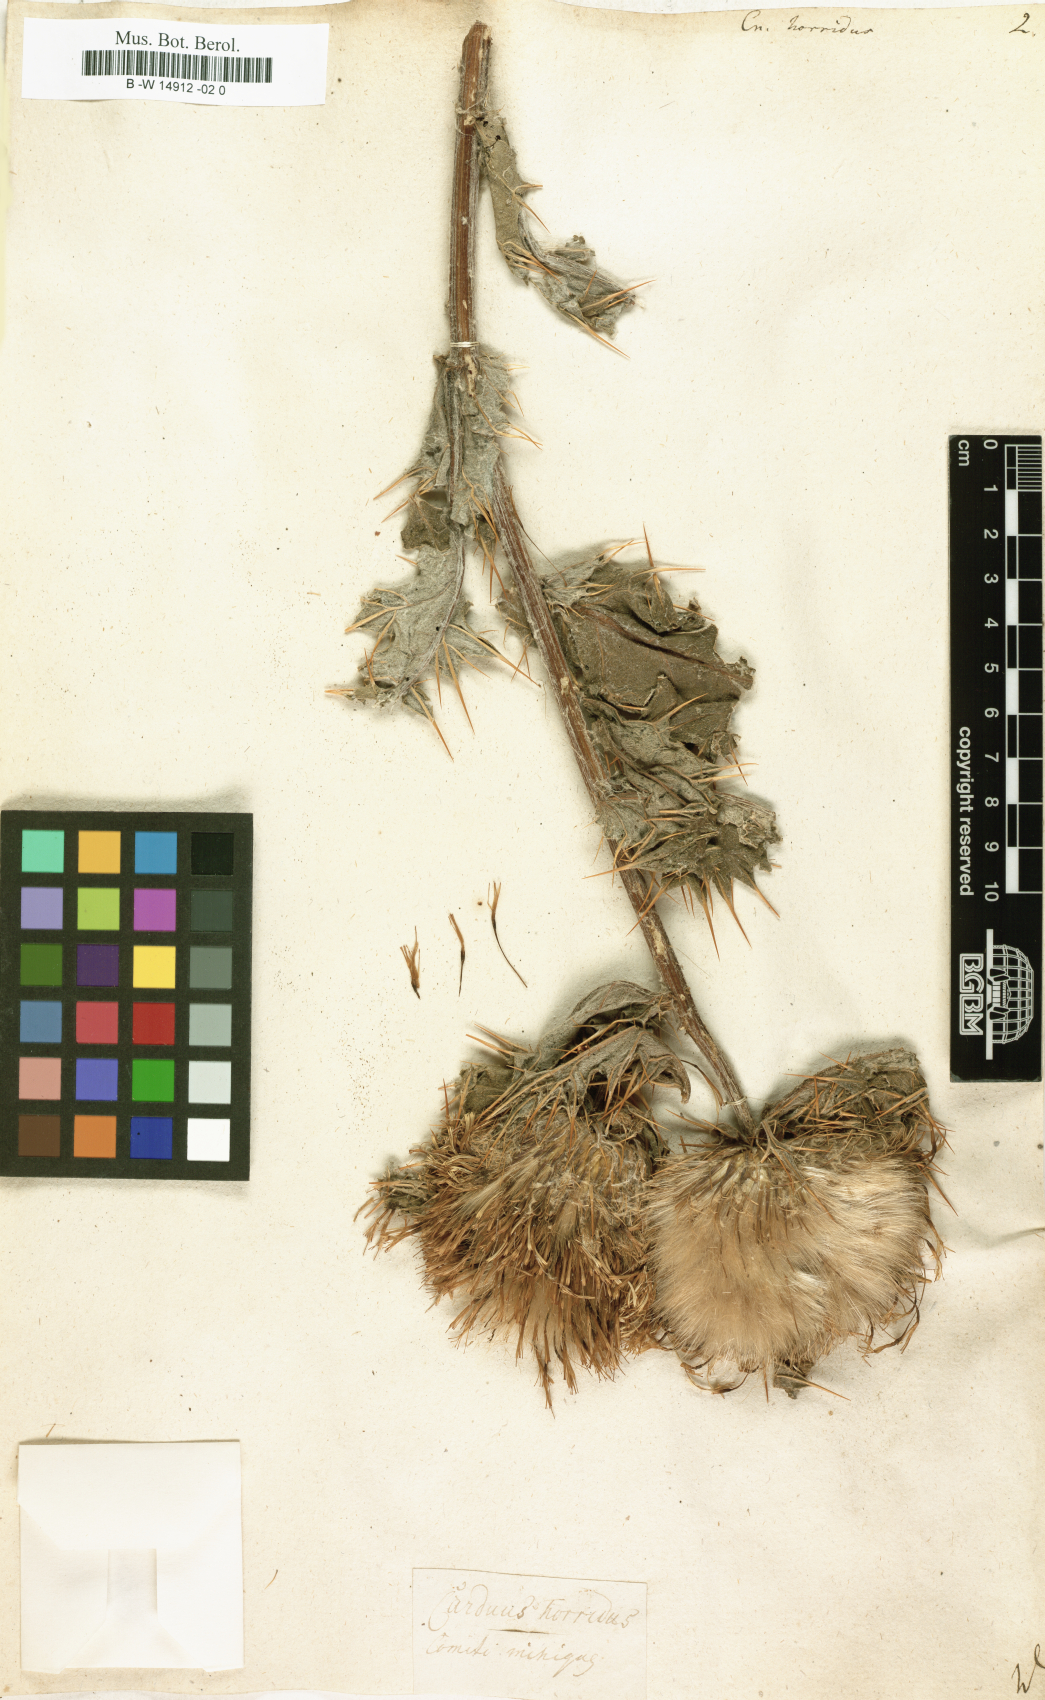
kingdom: Plantae
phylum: Tracheophyta
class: Magnoliopsida
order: Asterales
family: Asteraceae
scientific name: Asteraceae
